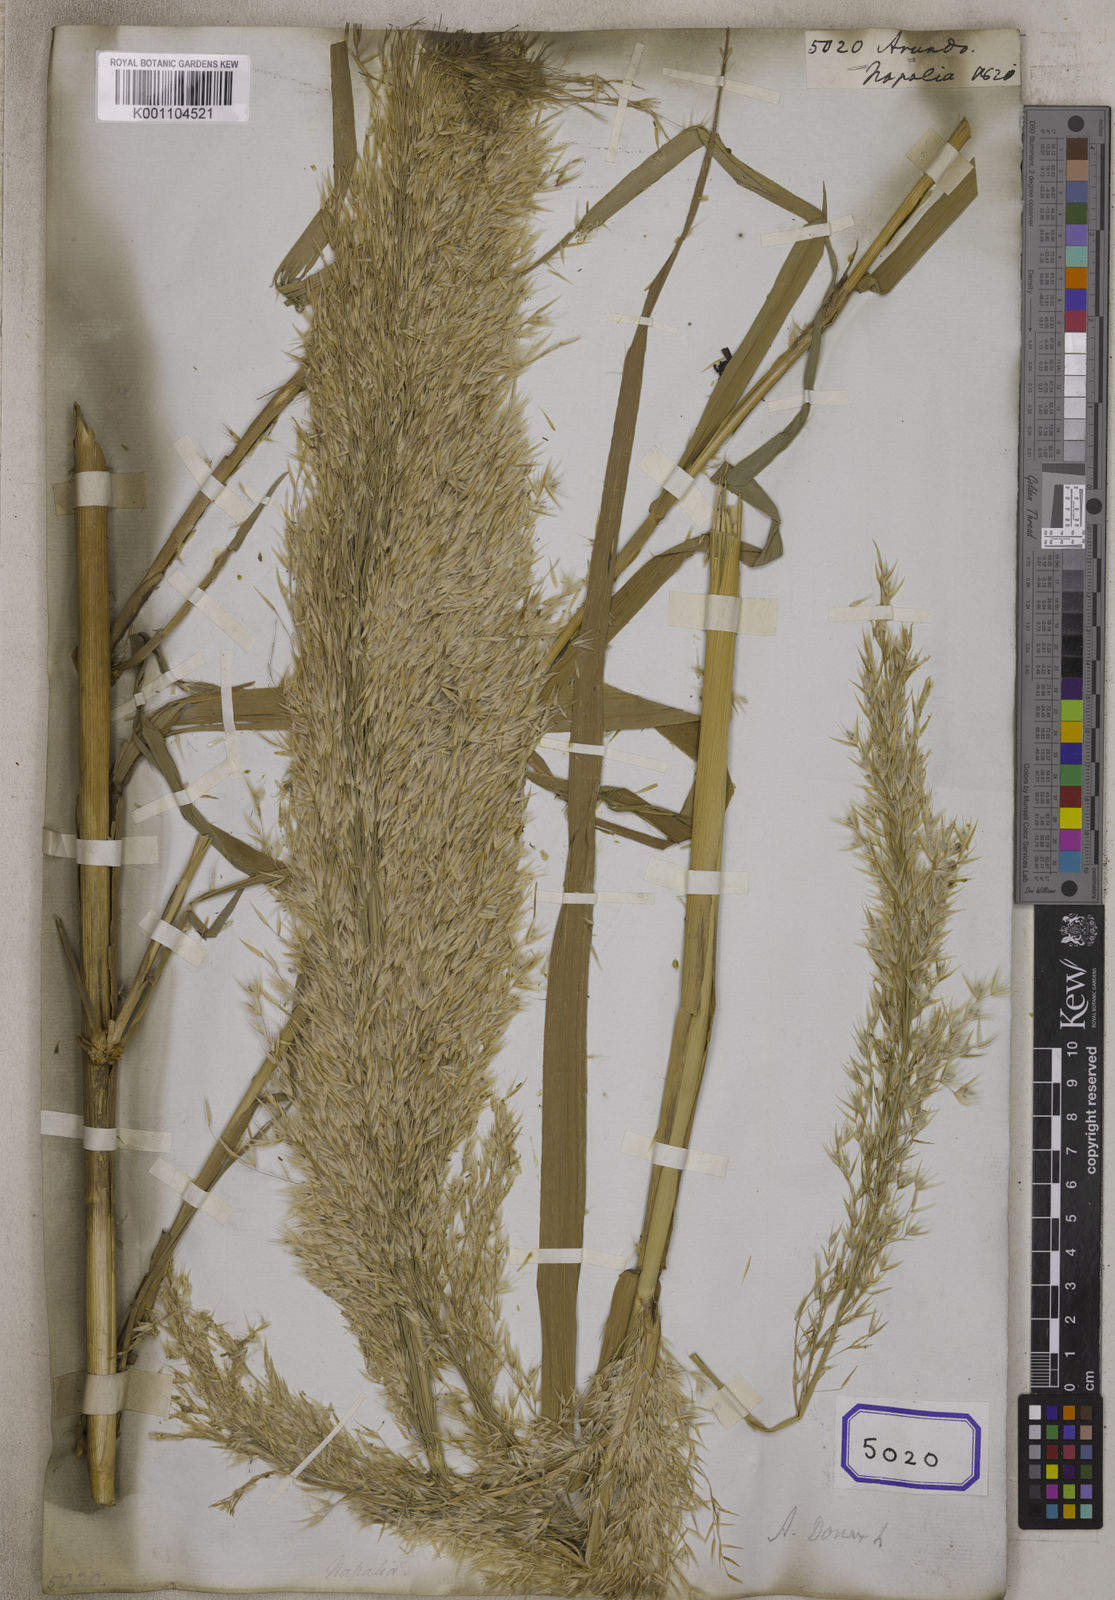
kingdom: Plantae
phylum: Tracheophyta
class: Liliopsida
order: Poales
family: Poaceae
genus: Arundo
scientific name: Arundo
